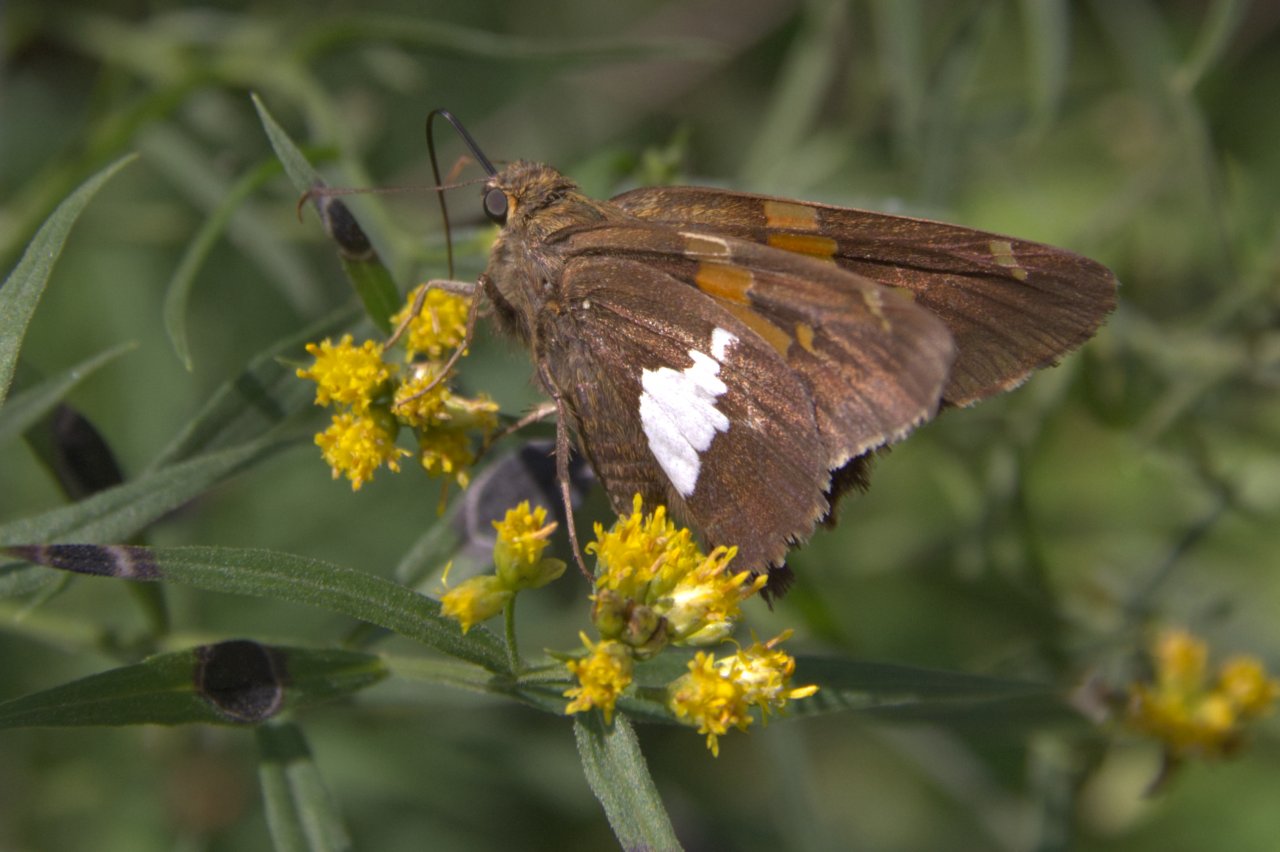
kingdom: Animalia
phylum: Arthropoda
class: Insecta
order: Lepidoptera
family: Hesperiidae
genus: Epargyreus
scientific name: Epargyreus clarus
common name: Silver-spotted Skipper
